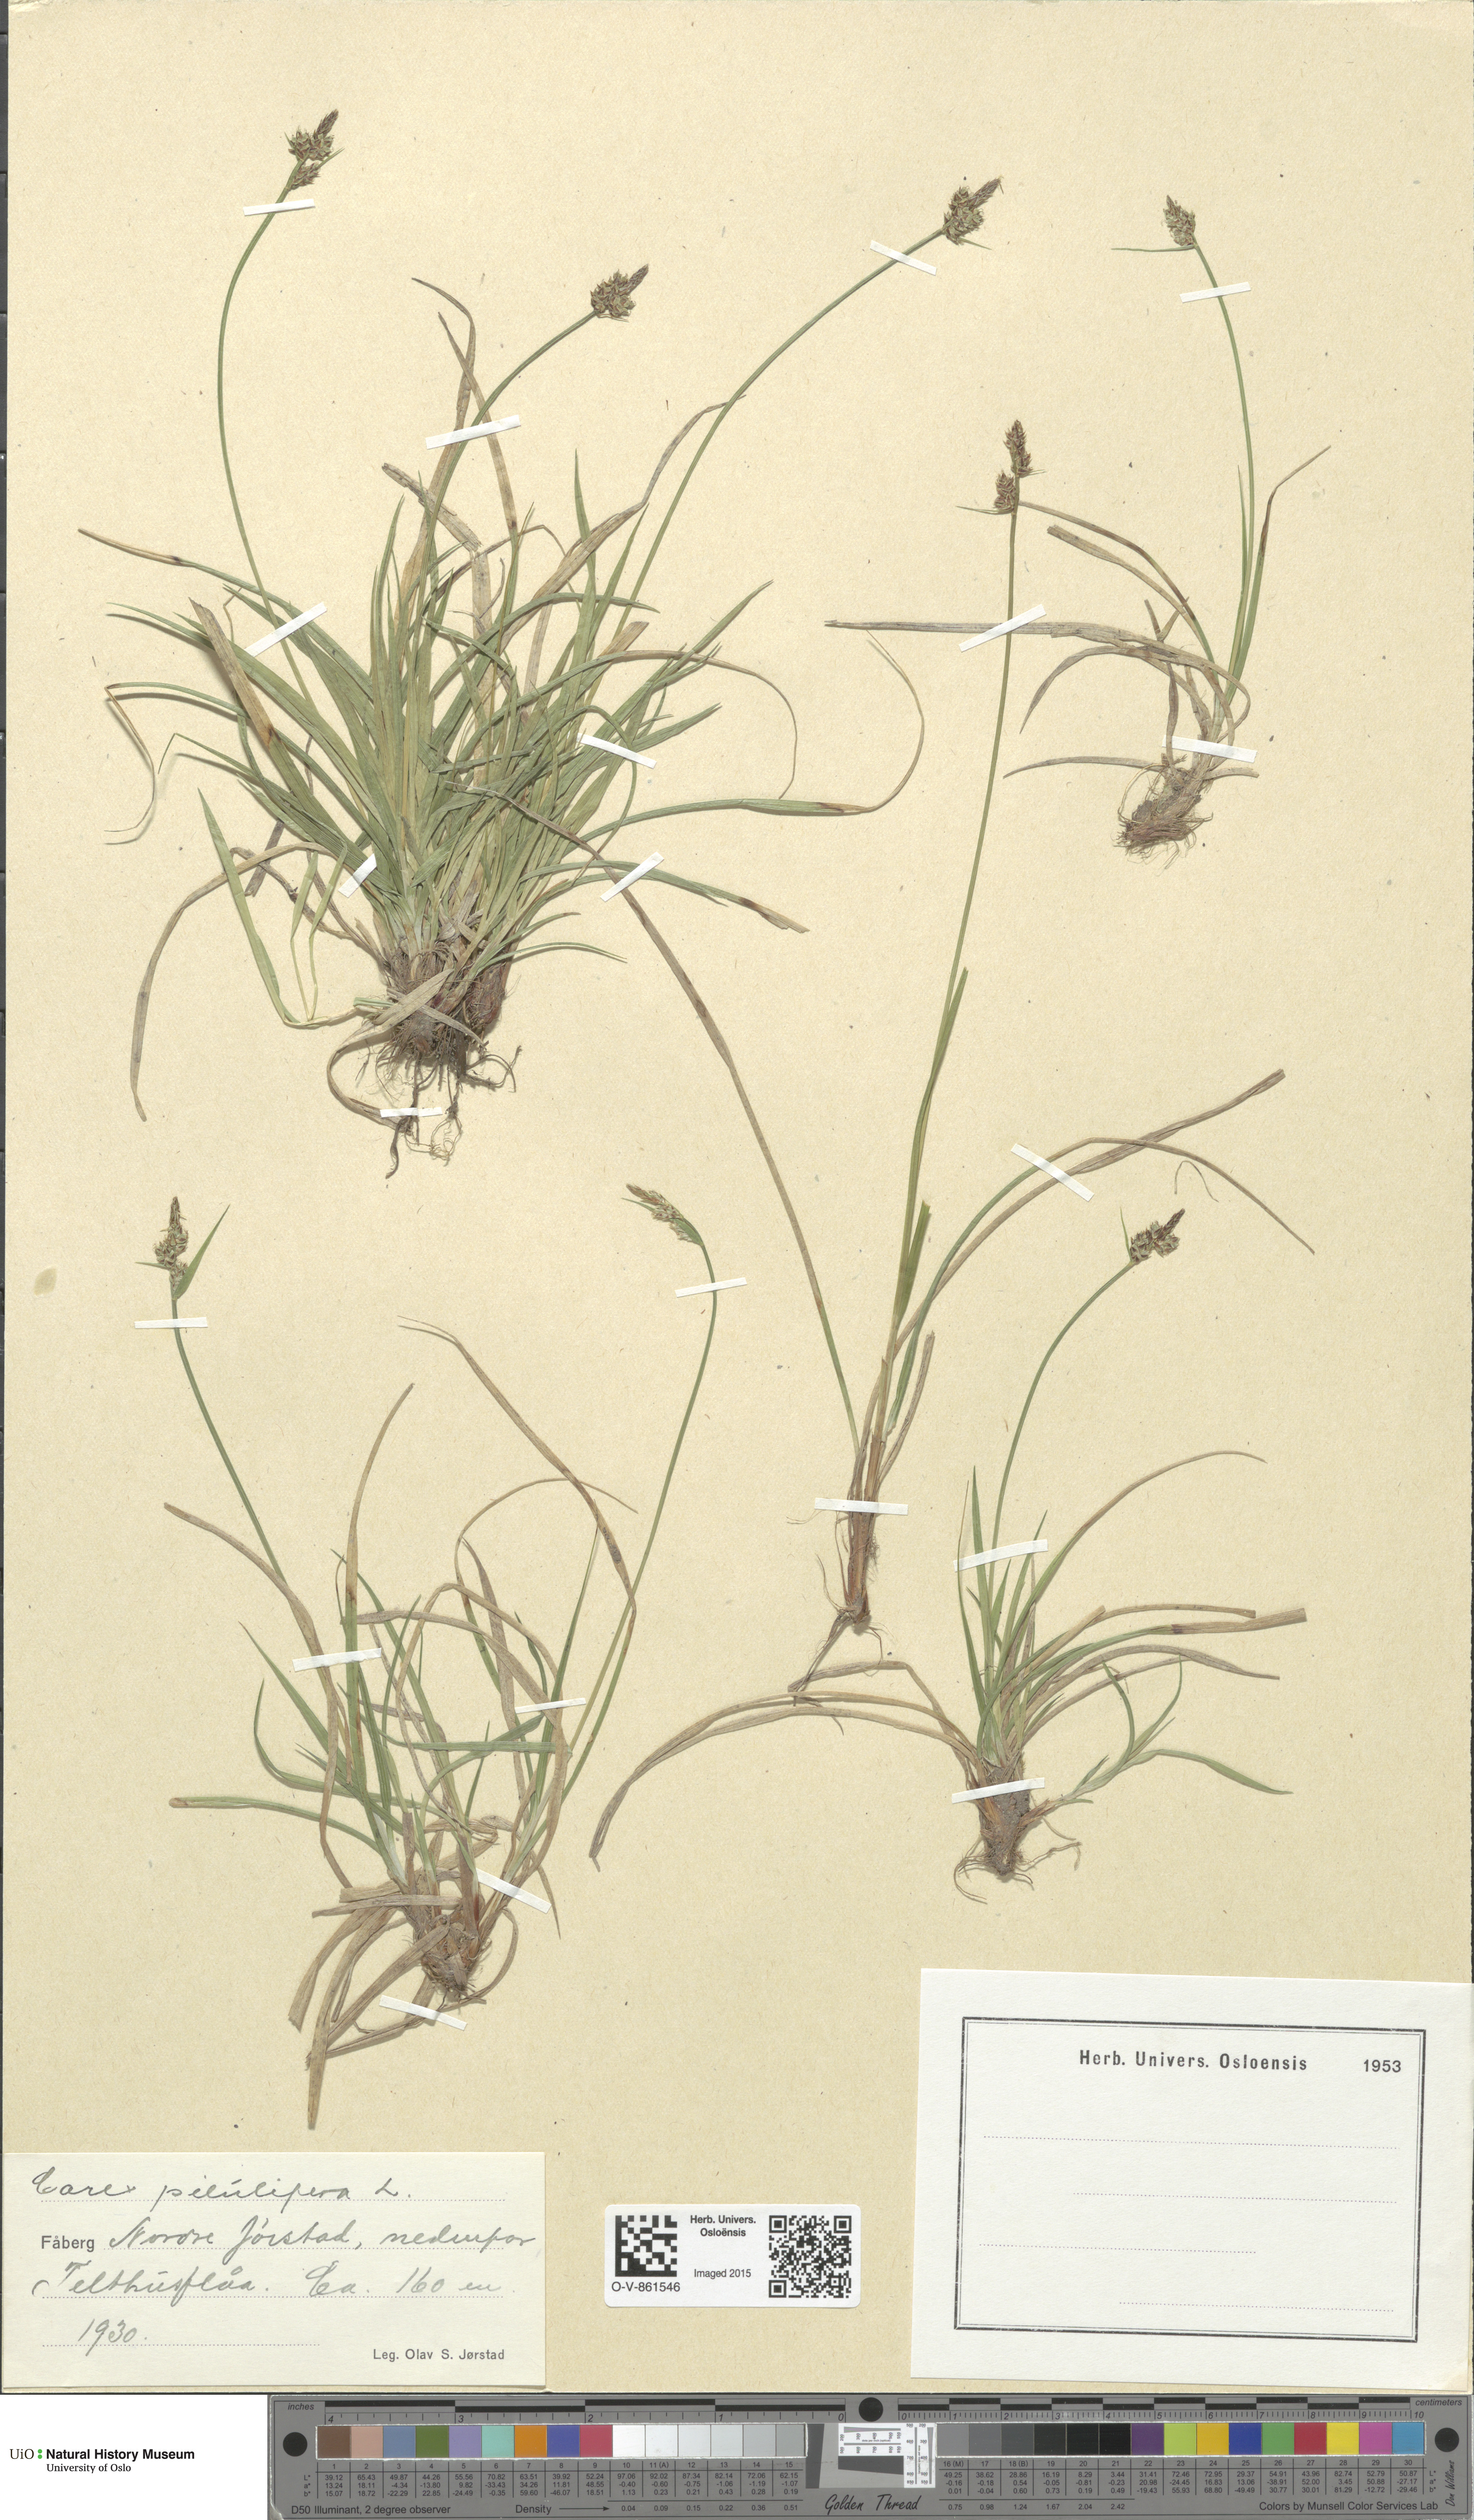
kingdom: Plantae
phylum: Tracheophyta
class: Liliopsida
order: Poales
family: Cyperaceae
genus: Carex
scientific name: Carex pilulifera
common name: Pill sedge
